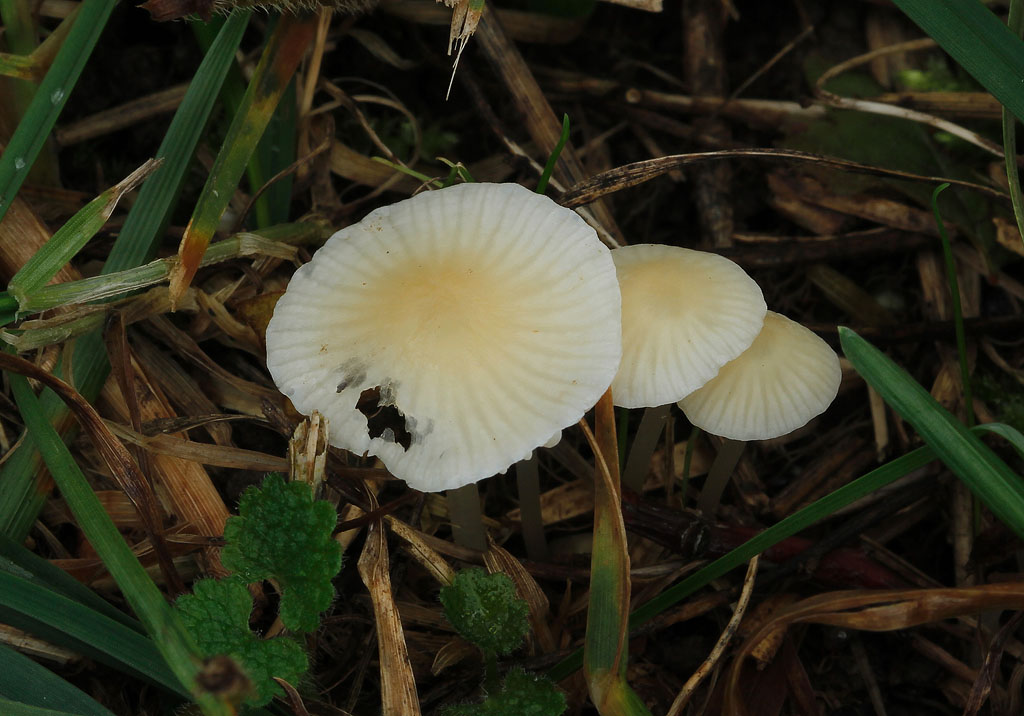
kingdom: Fungi
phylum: Basidiomycota
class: Agaricomycetes
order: Agaricales
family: Mycenaceae
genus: Atheniella
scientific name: Atheniella flavoalba
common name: gulhvid huesvamp
